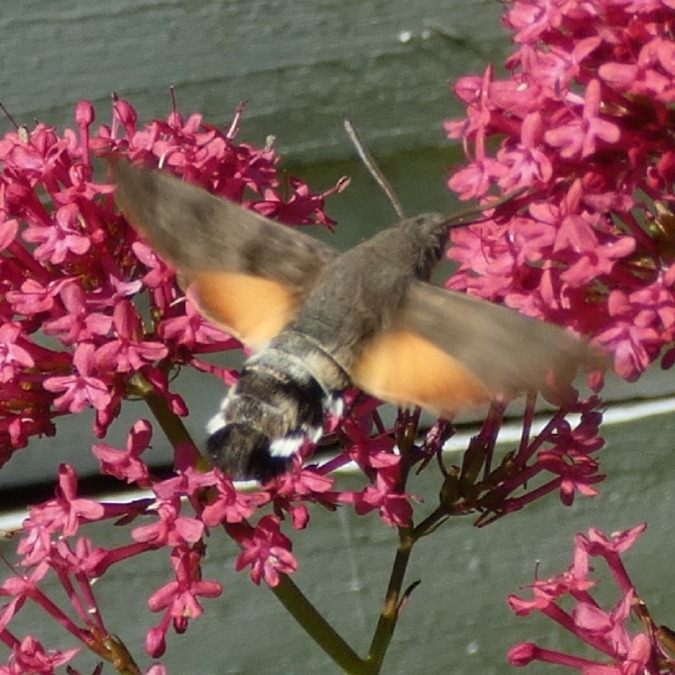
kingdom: Animalia
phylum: Arthropoda
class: Insecta
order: Lepidoptera
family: Sphingidae
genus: Macroglossum
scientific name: Macroglossum stellatarum
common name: Duehale
